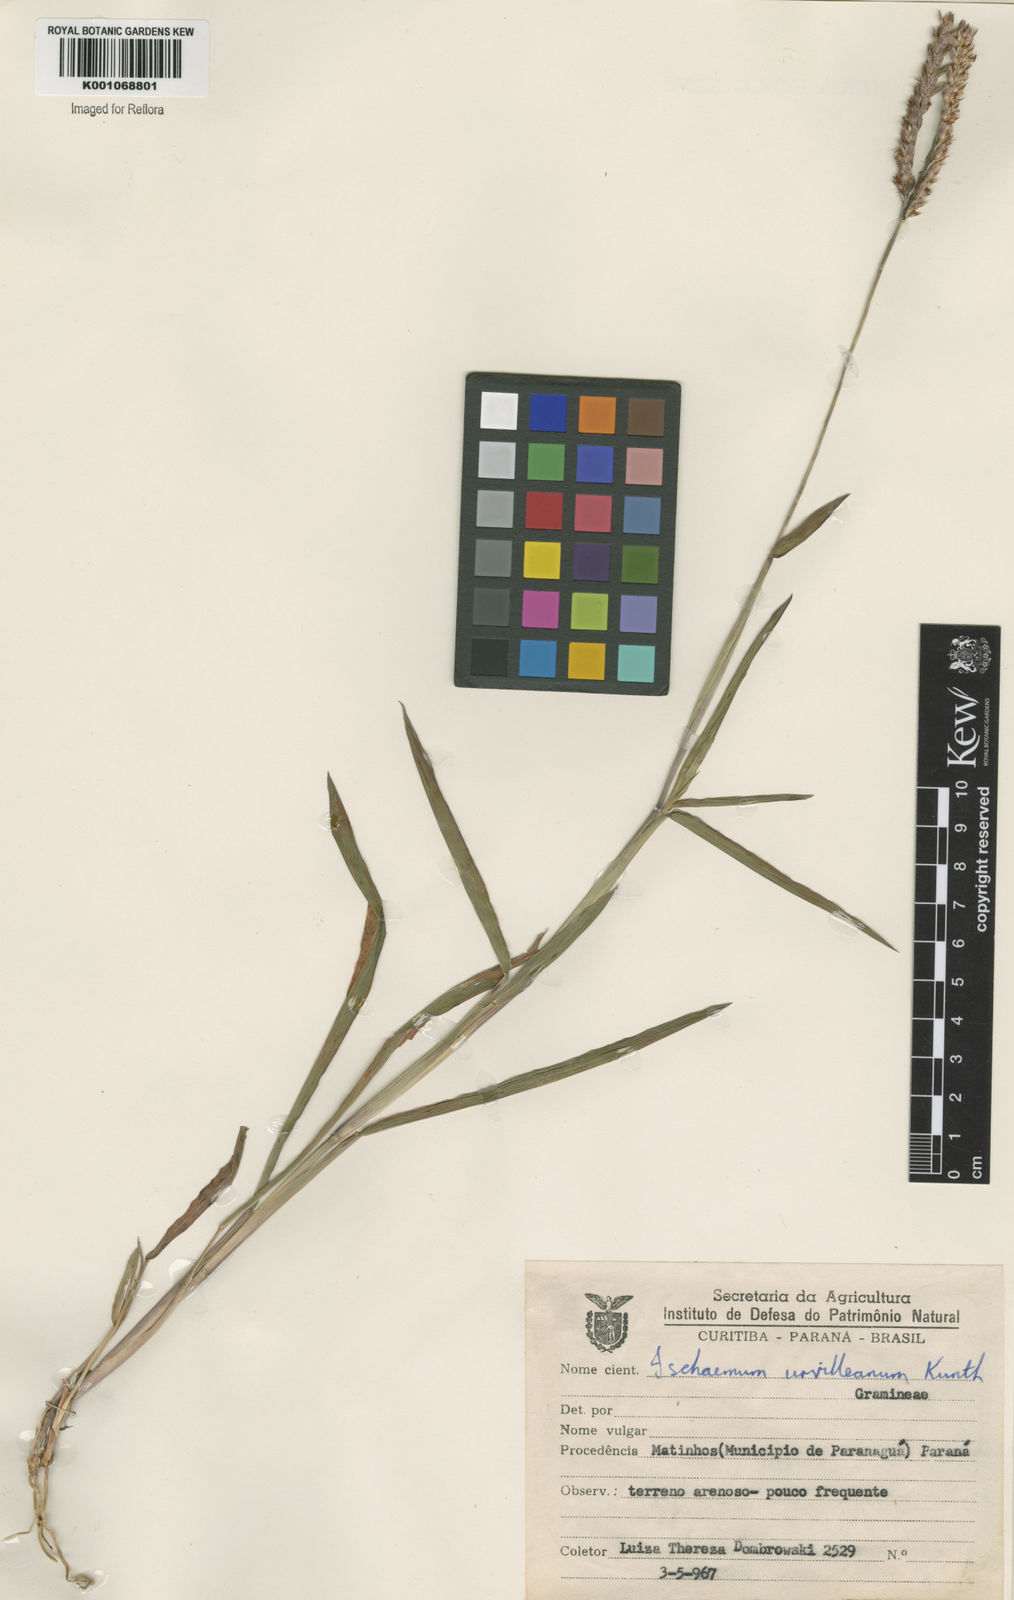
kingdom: Plantae
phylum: Tracheophyta
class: Liliopsida
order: Poales
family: Poaceae
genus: Ischaemum
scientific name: Ischaemum minus
